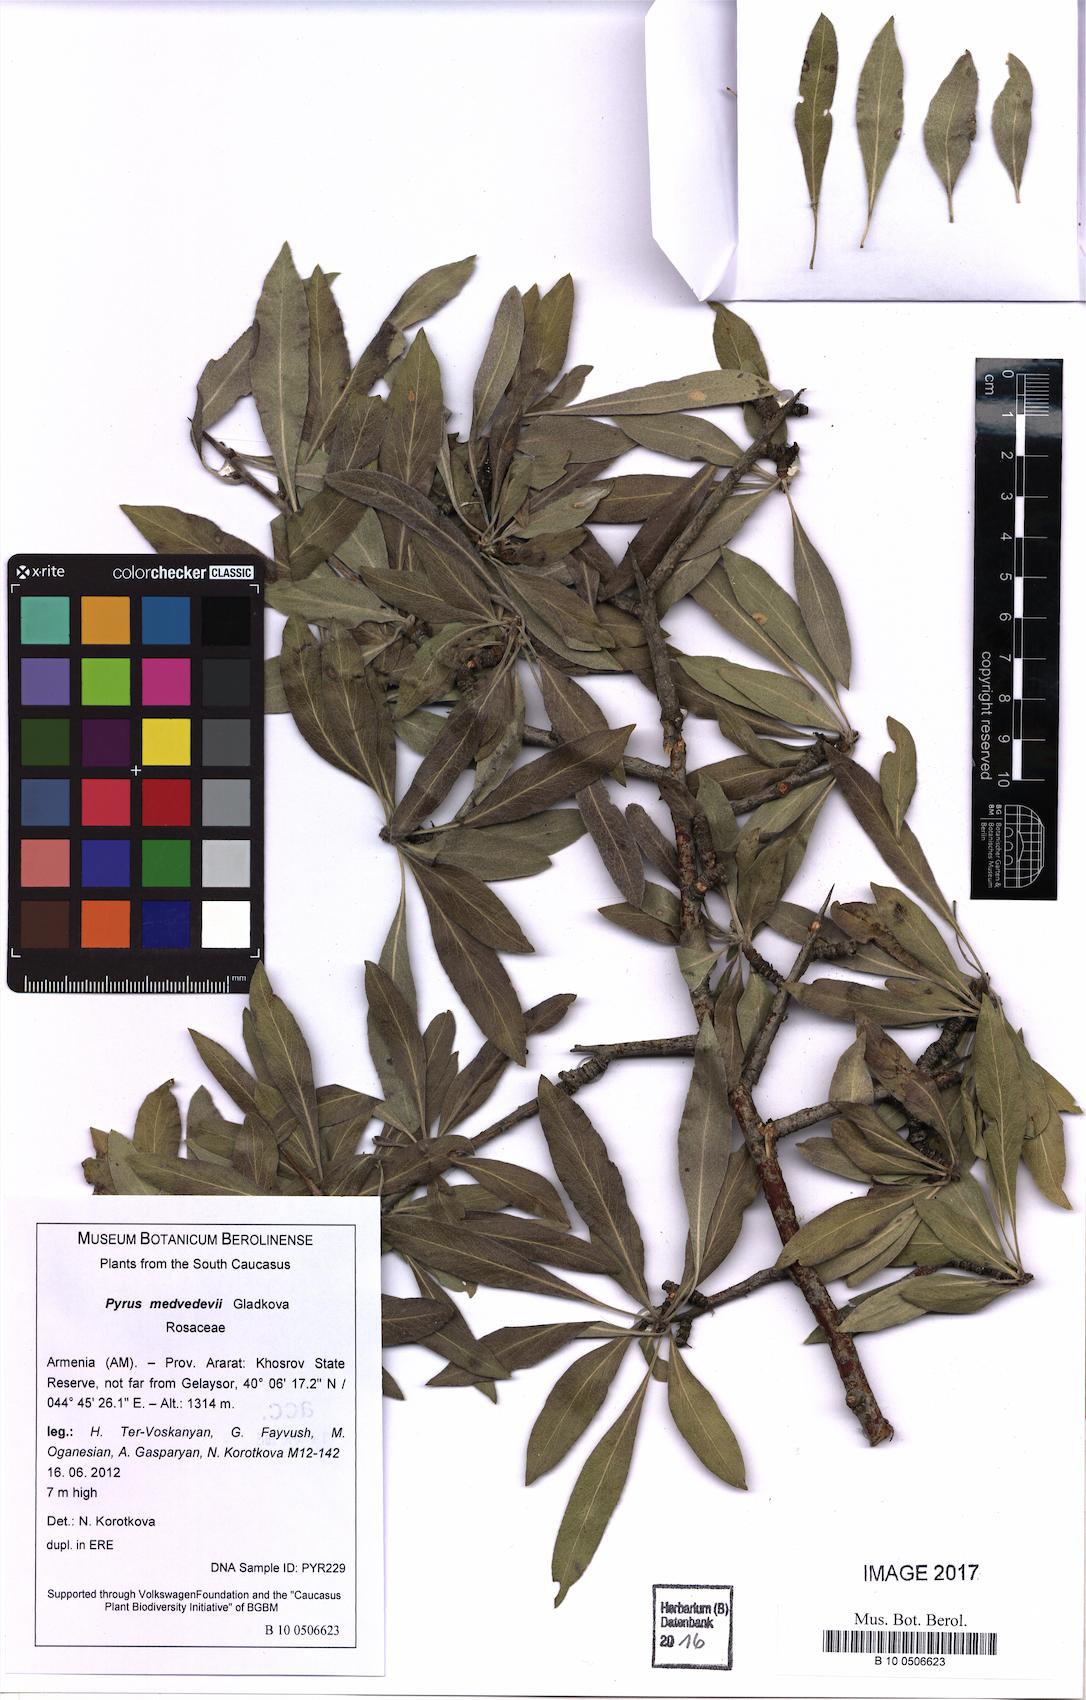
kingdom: Plantae
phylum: Tracheophyta
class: Magnoliopsida
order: Rosales
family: Rosaceae
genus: Pyrus
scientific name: Pyrus medvedevii
